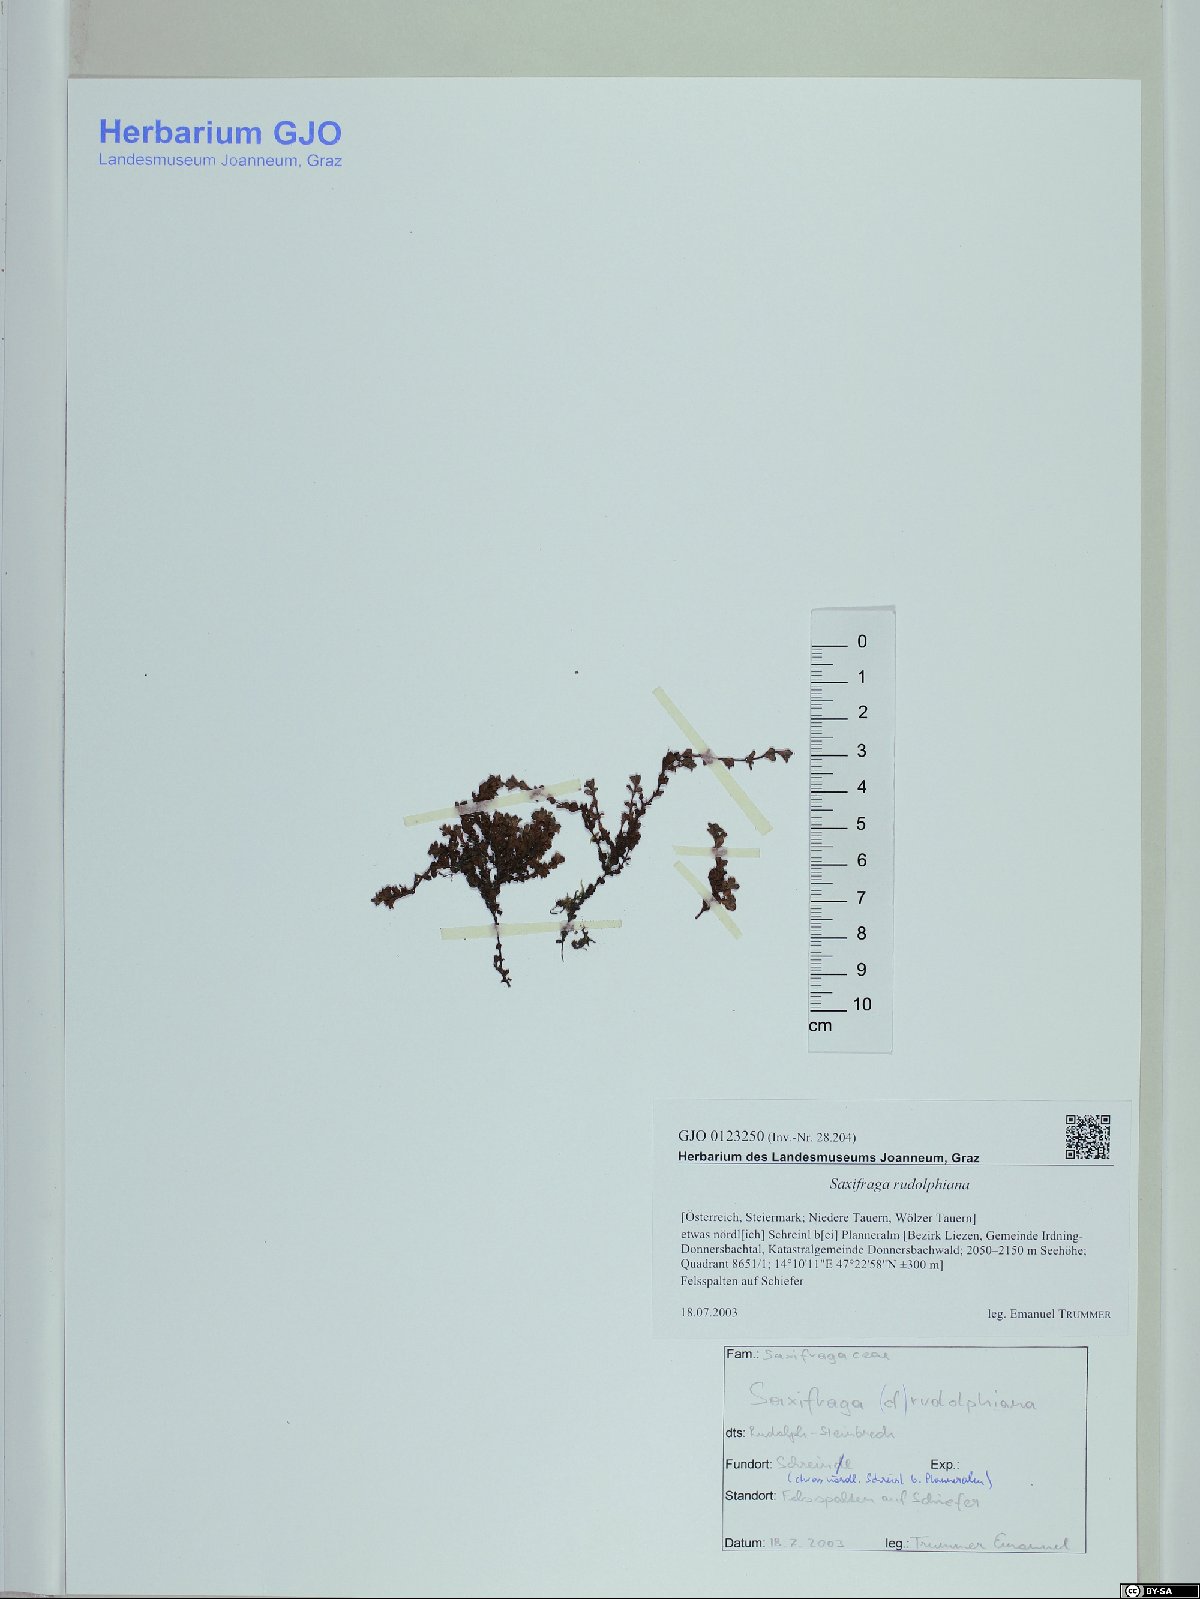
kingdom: Plantae
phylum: Tracheophyta
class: Magnoliopsida
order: Saxifragales
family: Saxifragaceae
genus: Saxifraga
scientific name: Saxifraga oppositifolia
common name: Purple saxifrage
